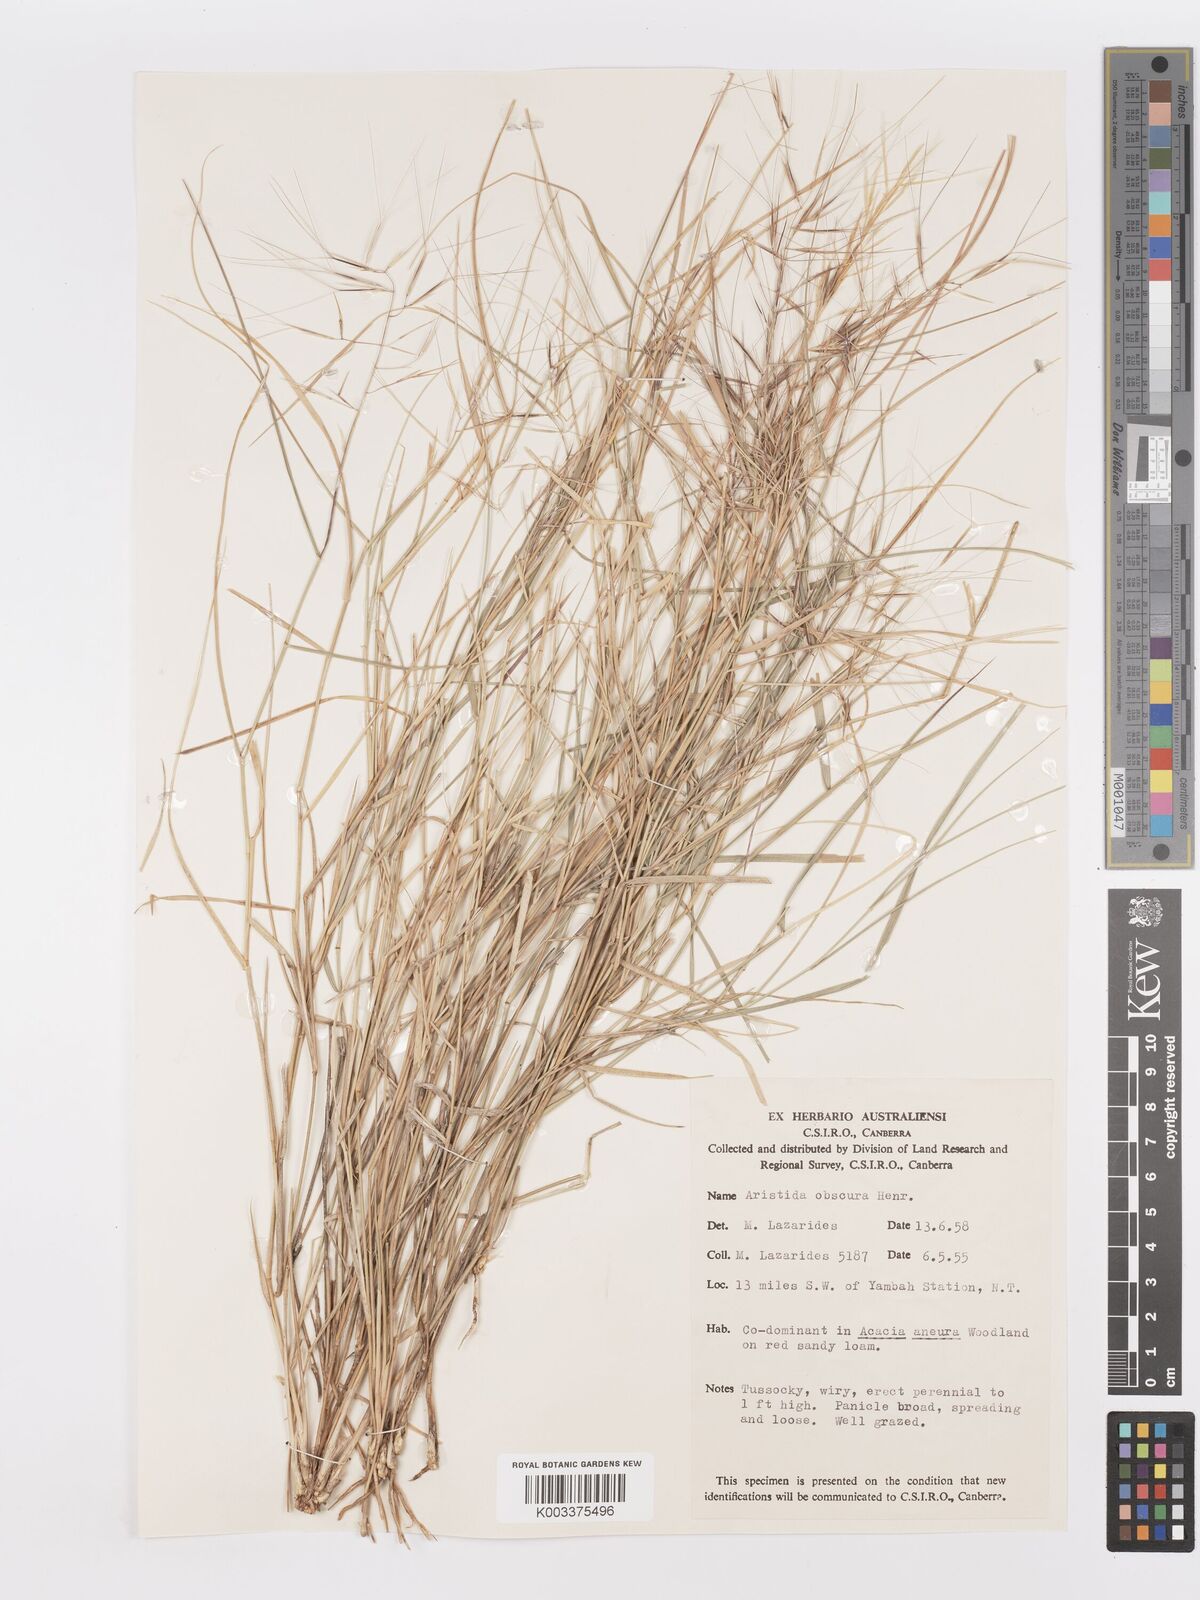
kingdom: Plantae
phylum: Tracheophyta
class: Liliopsida
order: Poales
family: Poaceae
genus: Aristida
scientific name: Aristida obscura
